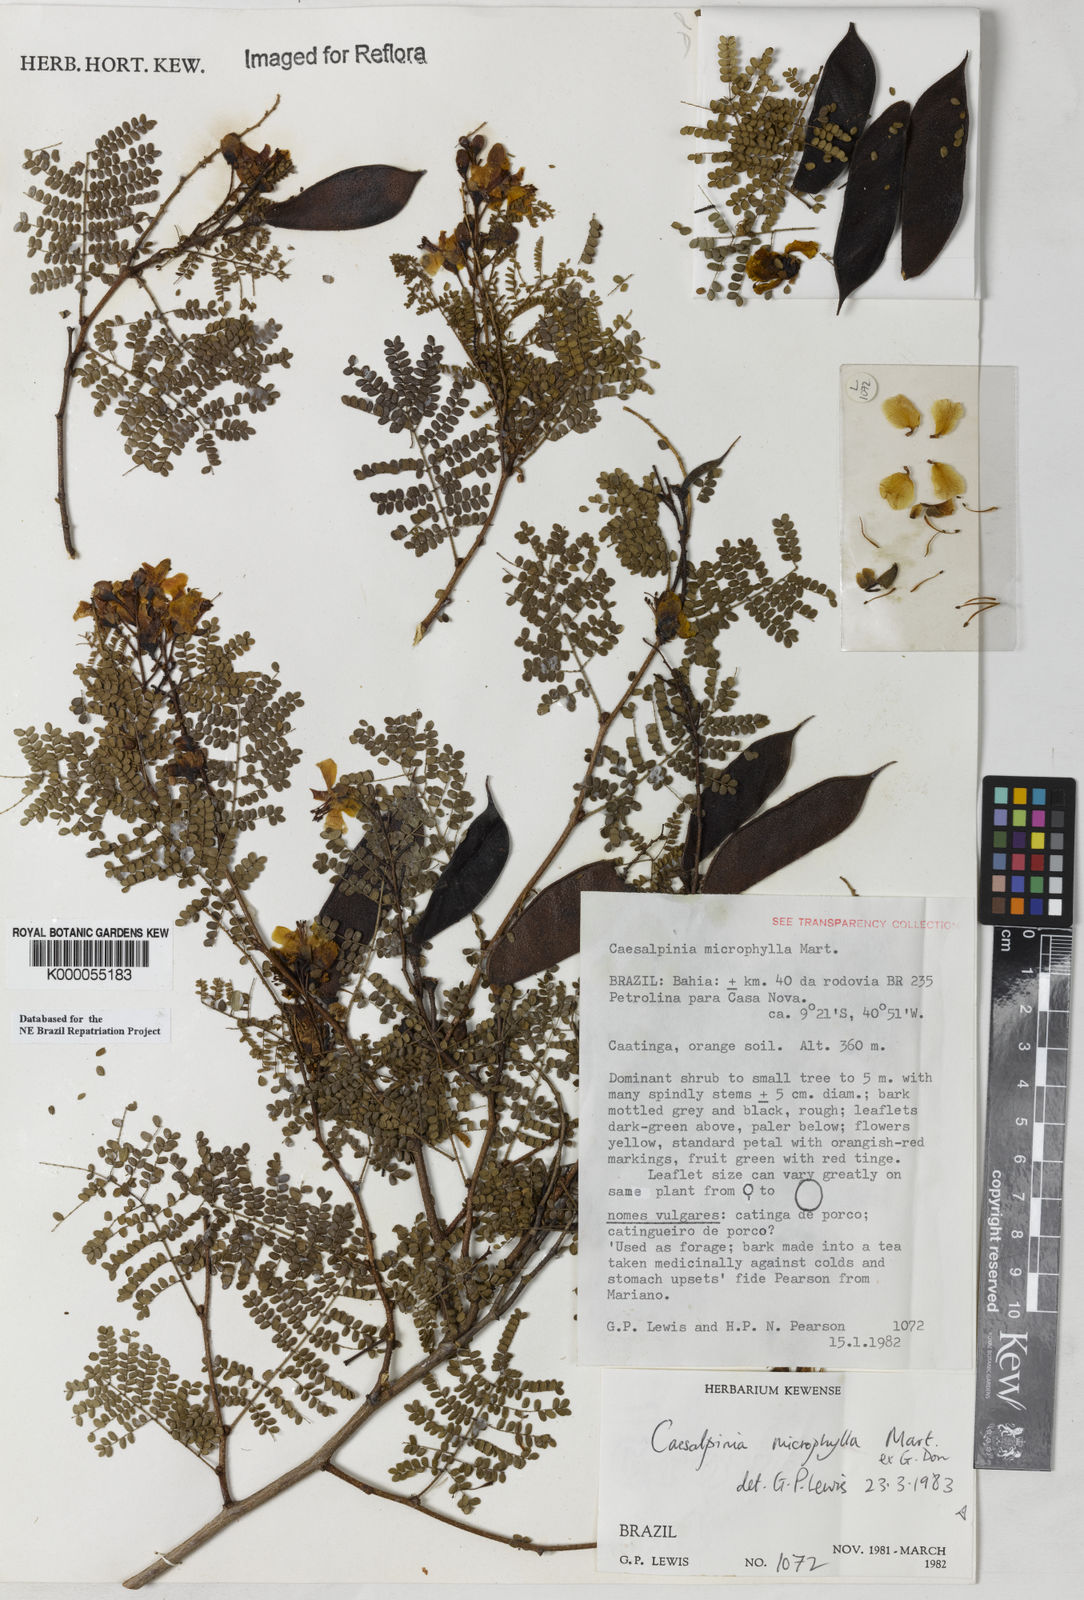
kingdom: Plantae
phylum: Tracheophyta
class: Magnoliopsida
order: Fabales
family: Fabaceae
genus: Cenostigma
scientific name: Cenostigma microphyllum
